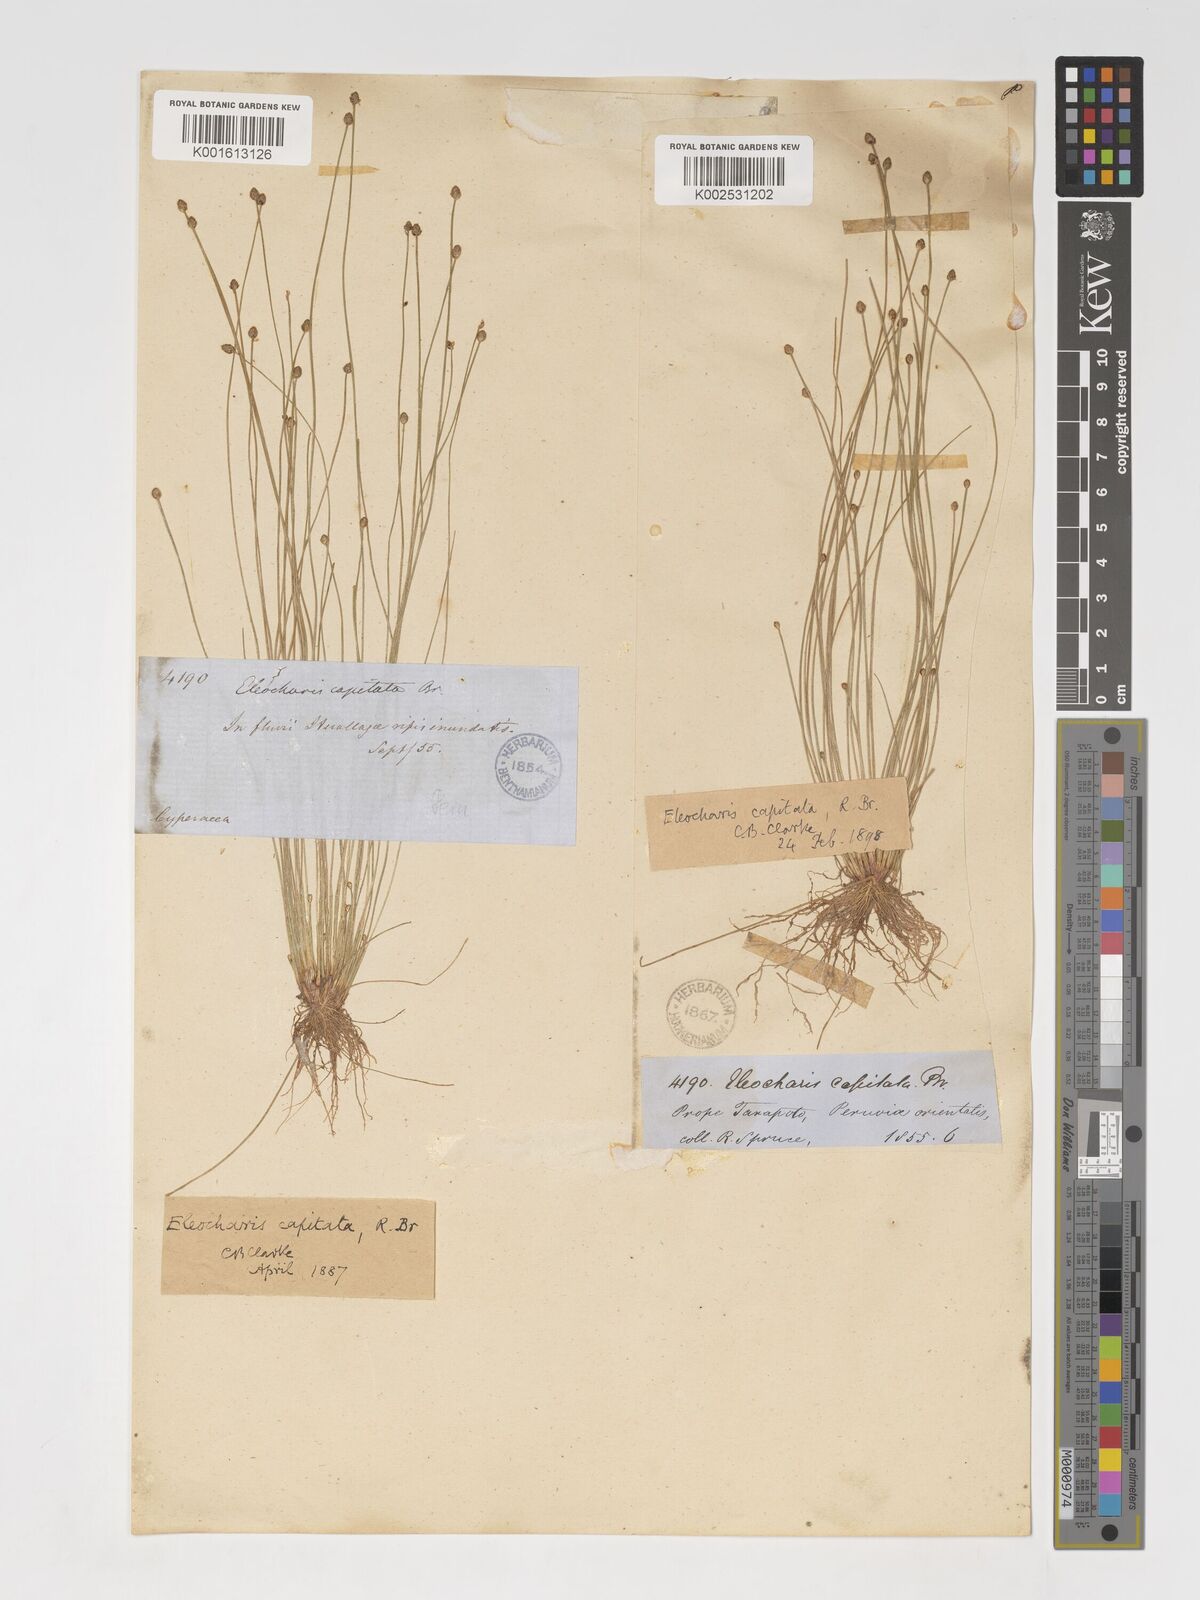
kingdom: Plantae
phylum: Tracheophyta
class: Liliopsida
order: Poales
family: Cyperaceae
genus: Eleocharis
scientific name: Eleocharis geniculata
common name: Canada spikesedge
